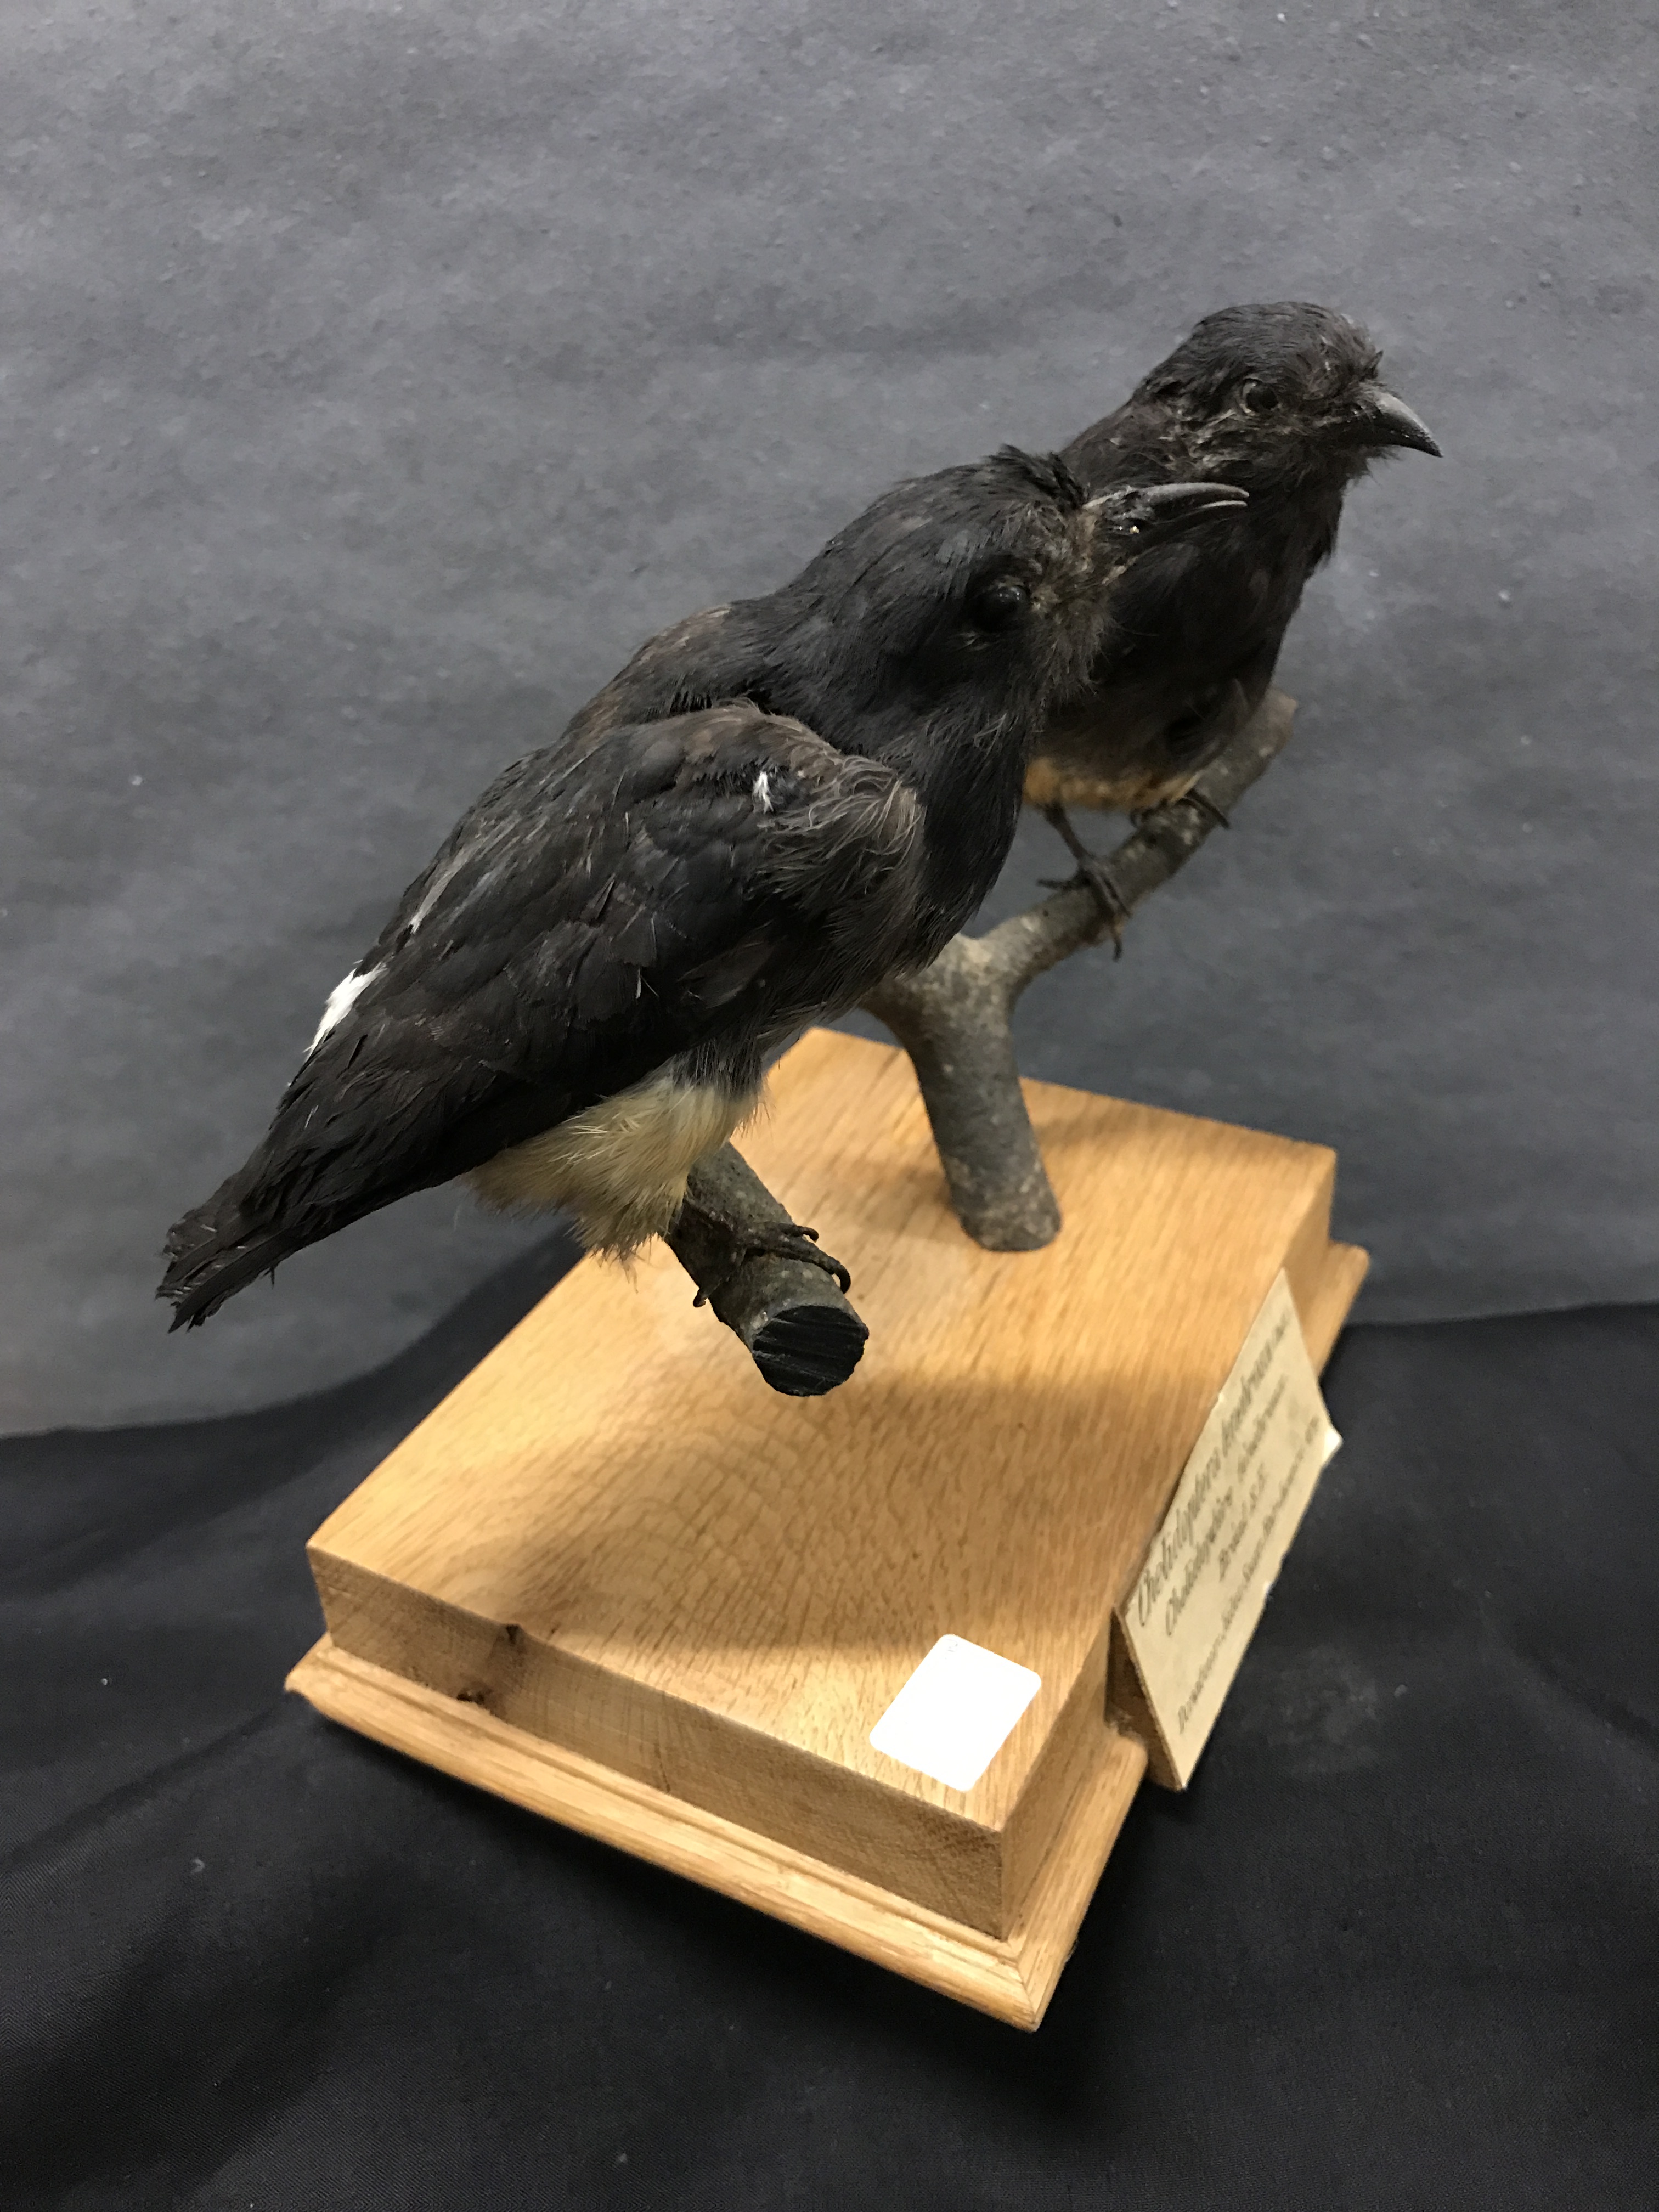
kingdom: Animalia
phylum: Chordata
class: Aves
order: Piciformes
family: Bucconidae
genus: Chelidoptera
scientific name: Chelidoptera tenebrosa
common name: Swallow-winged puffbird
